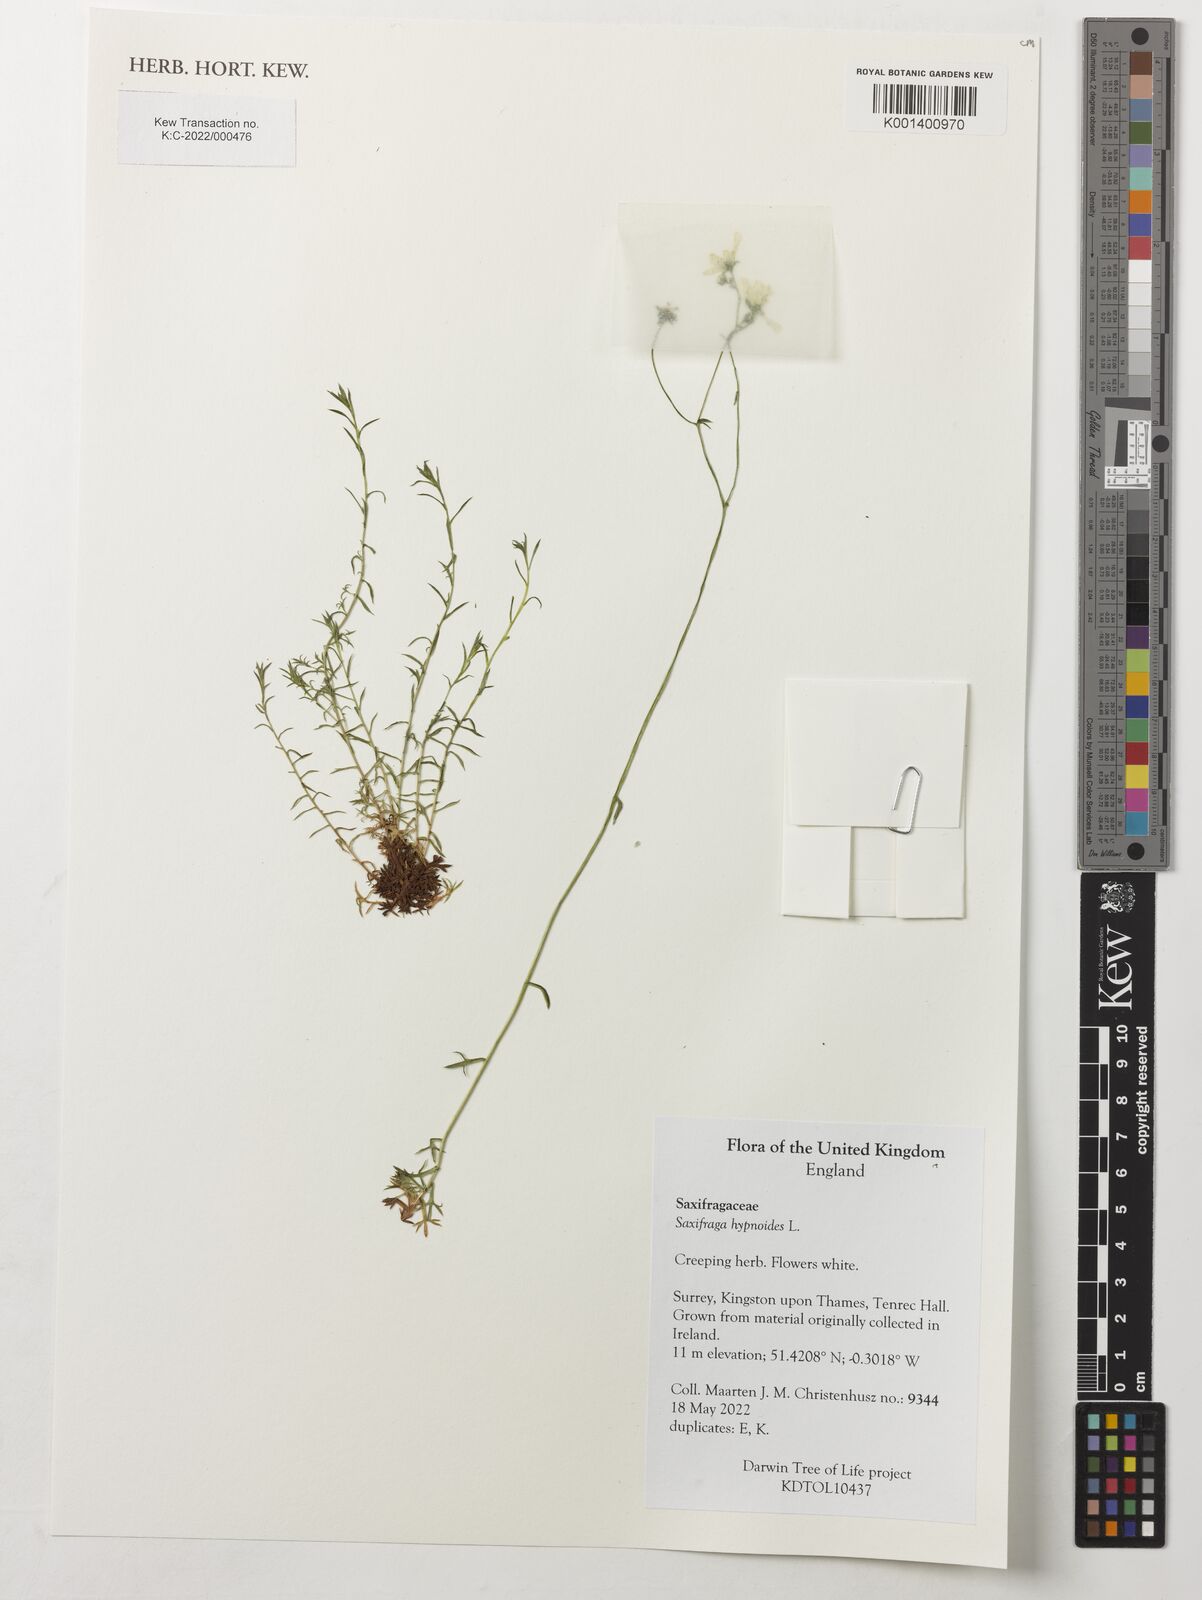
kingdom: Plantae
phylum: Tracheophyta
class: Magnoliopsida
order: Saxifragales
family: Saxifragaceae
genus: Saxifraga
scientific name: Saxifraga hypnoides
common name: Mossy saxifrage
